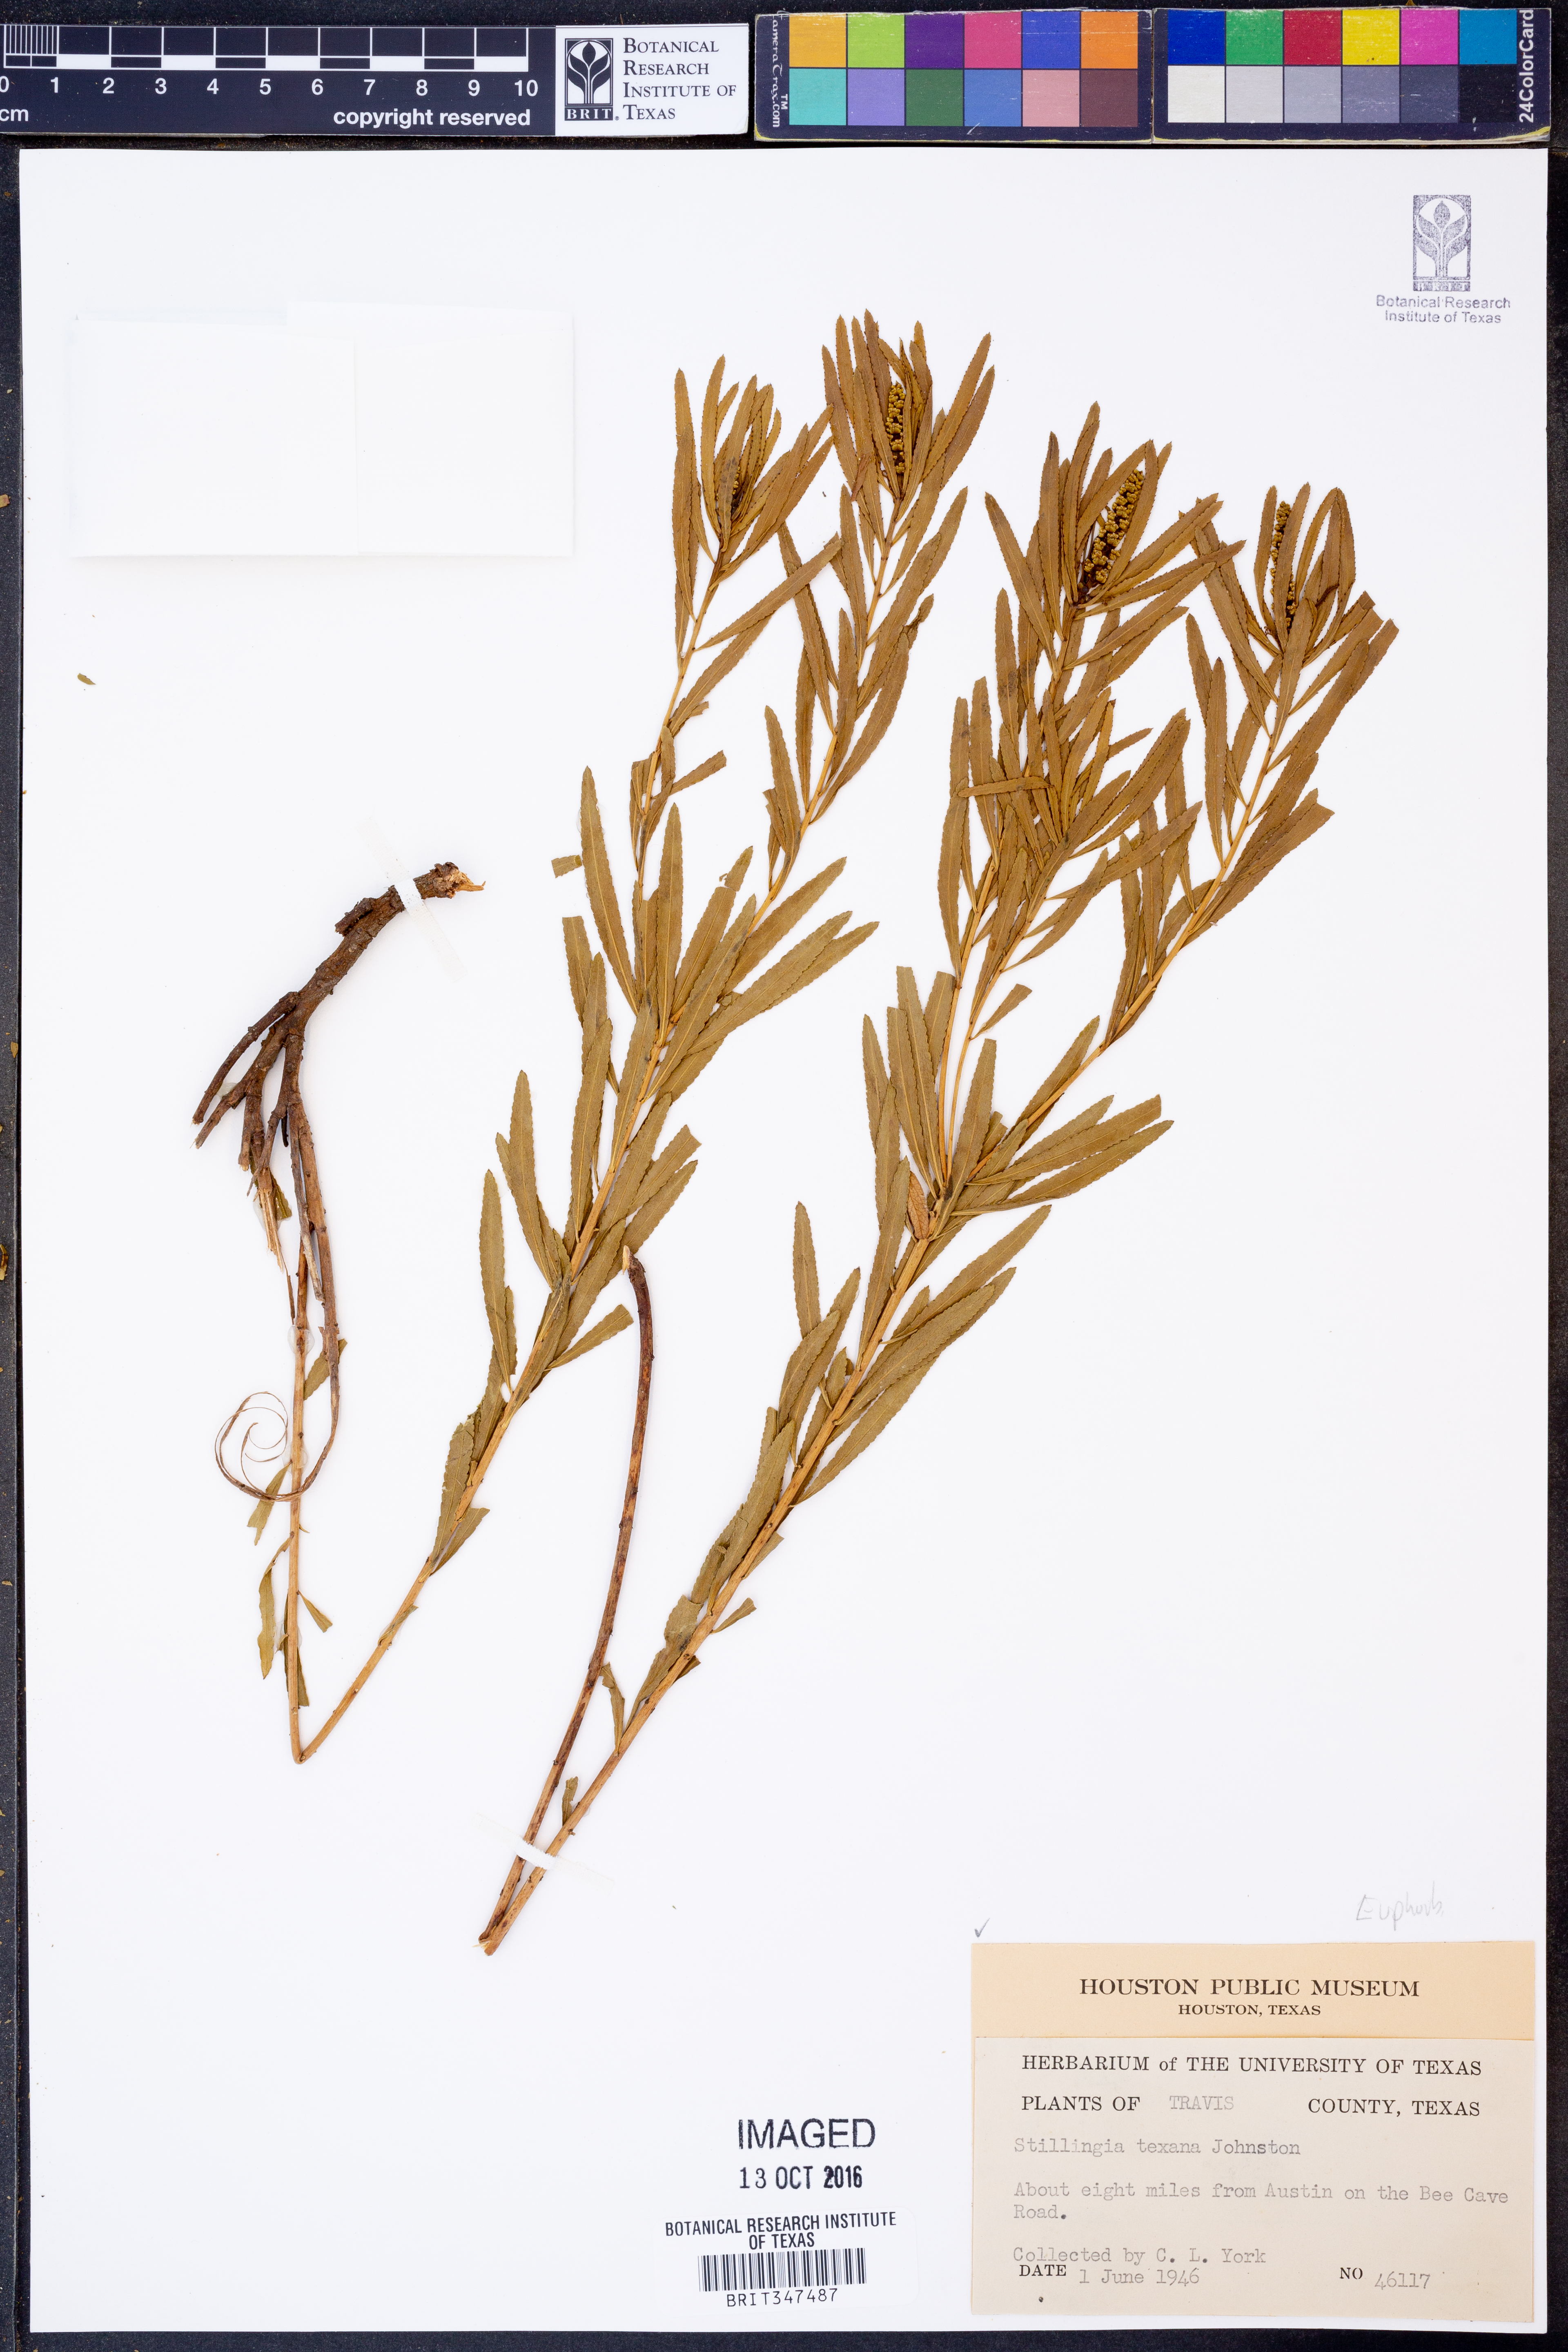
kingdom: Plantae
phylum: Tracheophyta
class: Magnoliopsida
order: Malpighiales
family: Euphorbiaceae
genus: Stillingia
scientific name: Stillingia texana
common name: Texas stillingia
